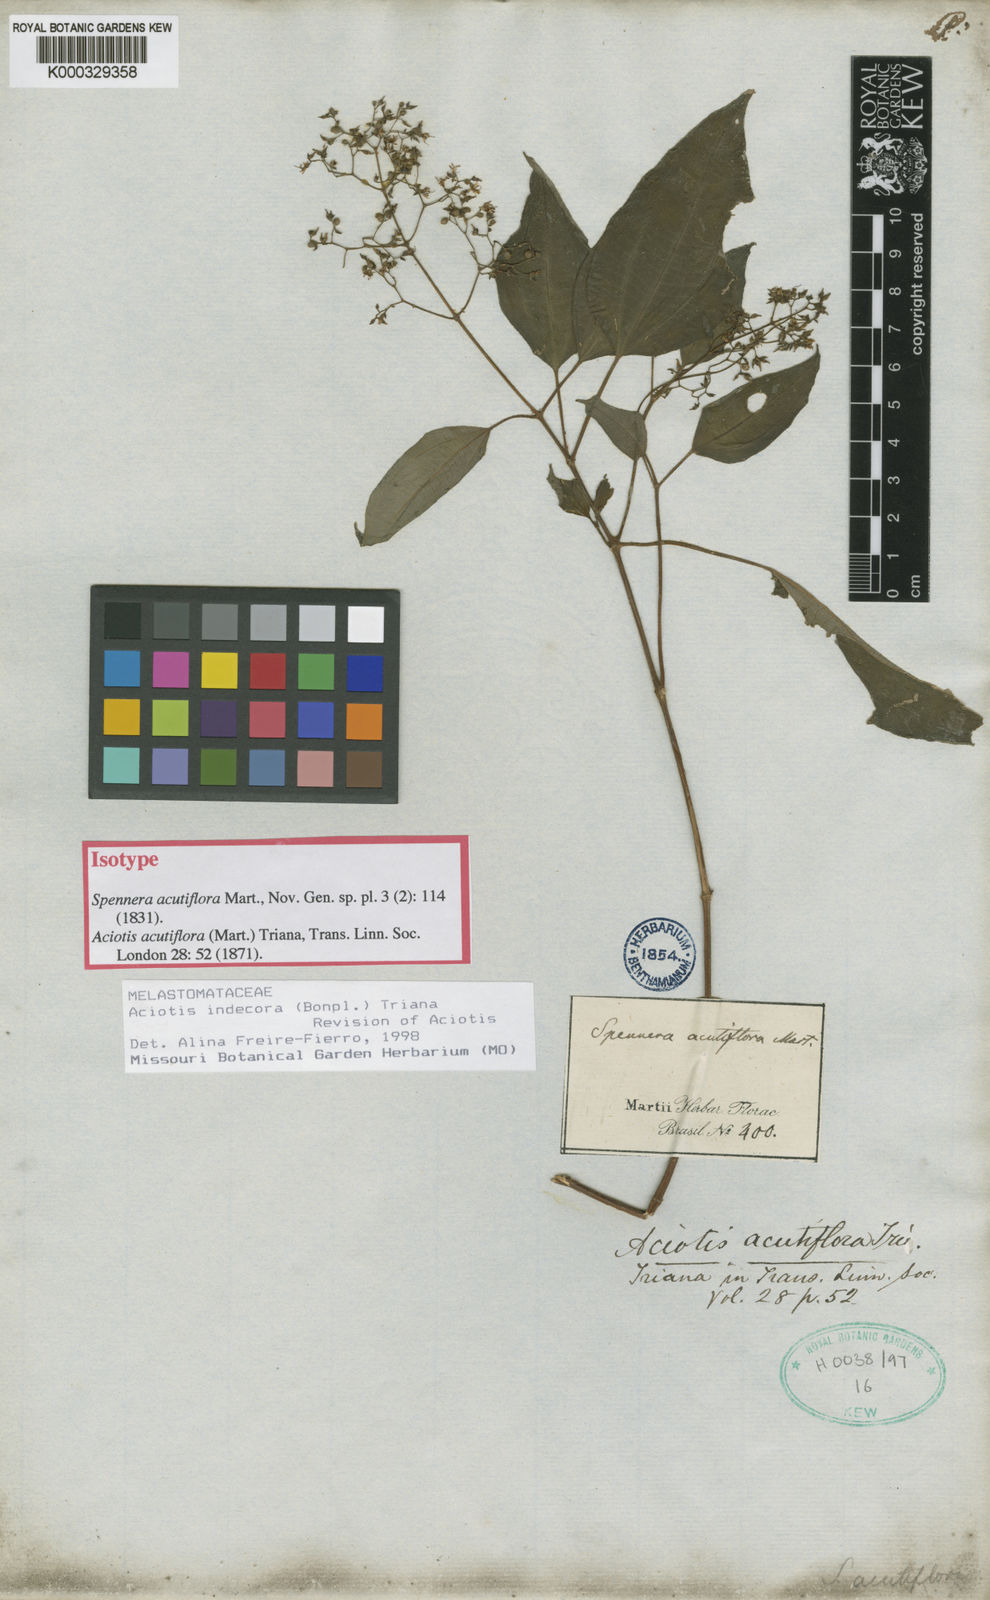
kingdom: Plantae
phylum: Tracheophyta
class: Magnoliopsida
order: Myrtales
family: Melastomataceae
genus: Aciotis
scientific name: Aciotis indecora
